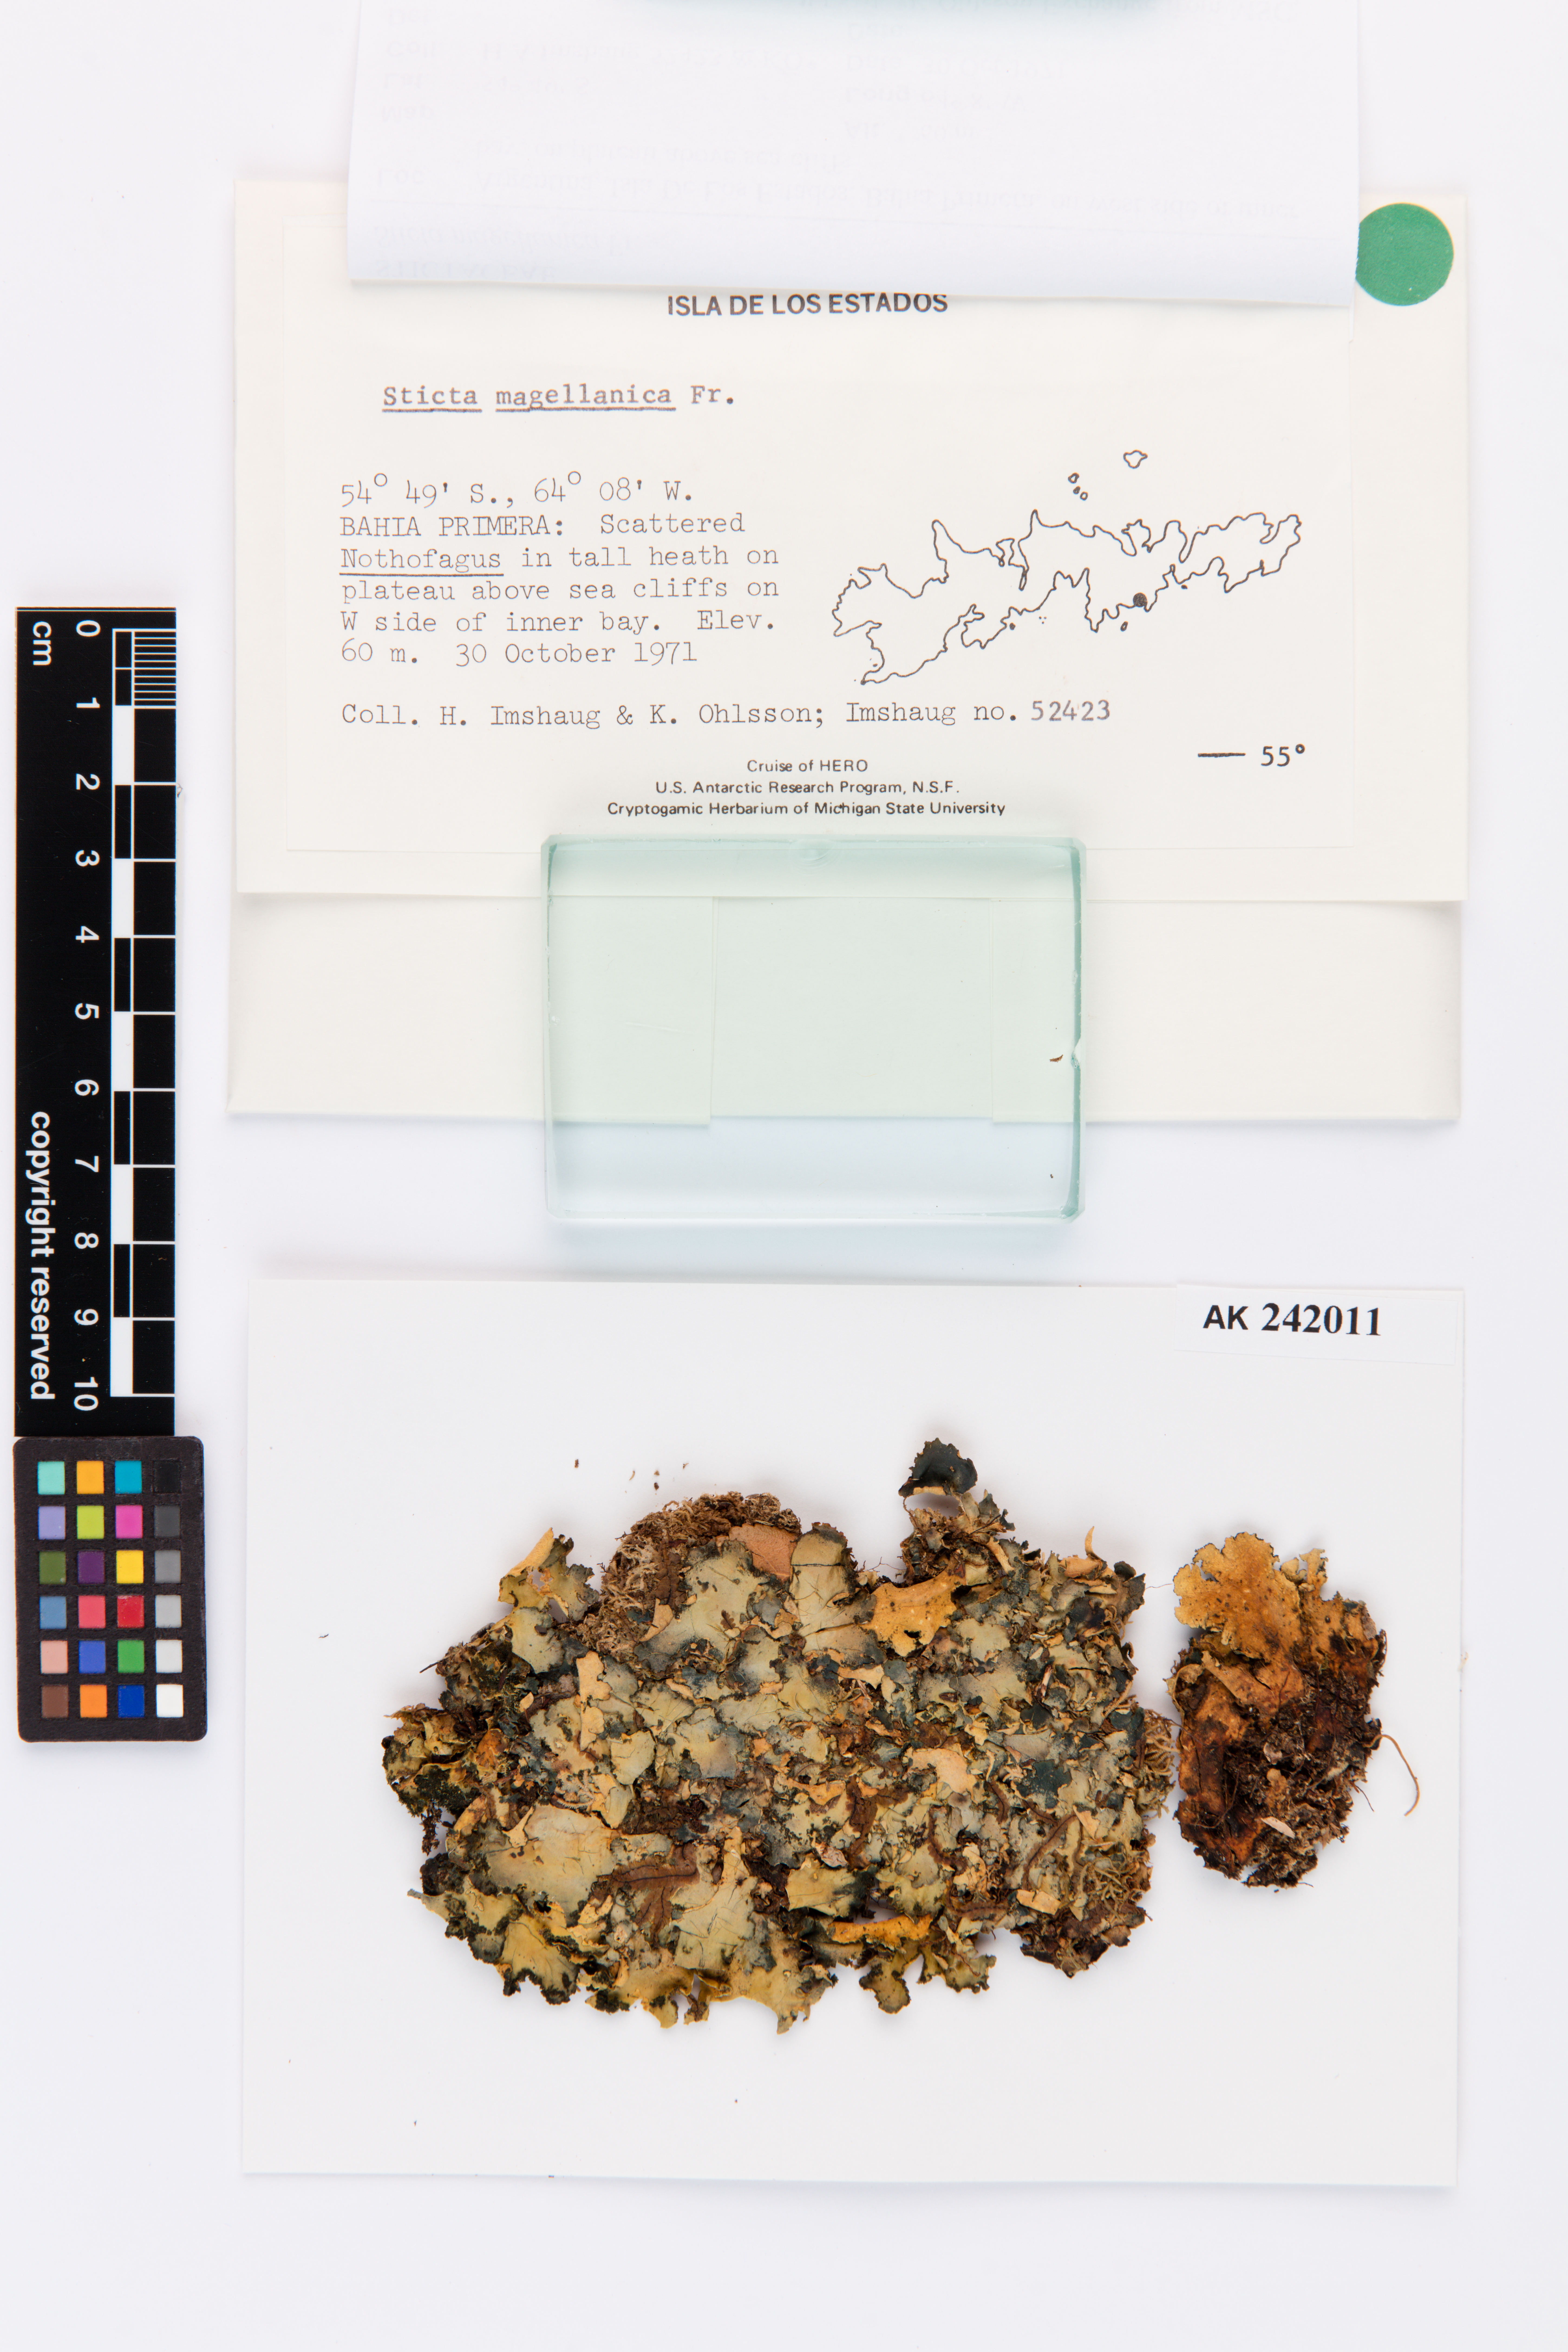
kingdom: Fungi
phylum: Ascomycota
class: Lecanoromycetes
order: Peltigerales
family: Lobariaceae
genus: Sticta
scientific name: Sticta
